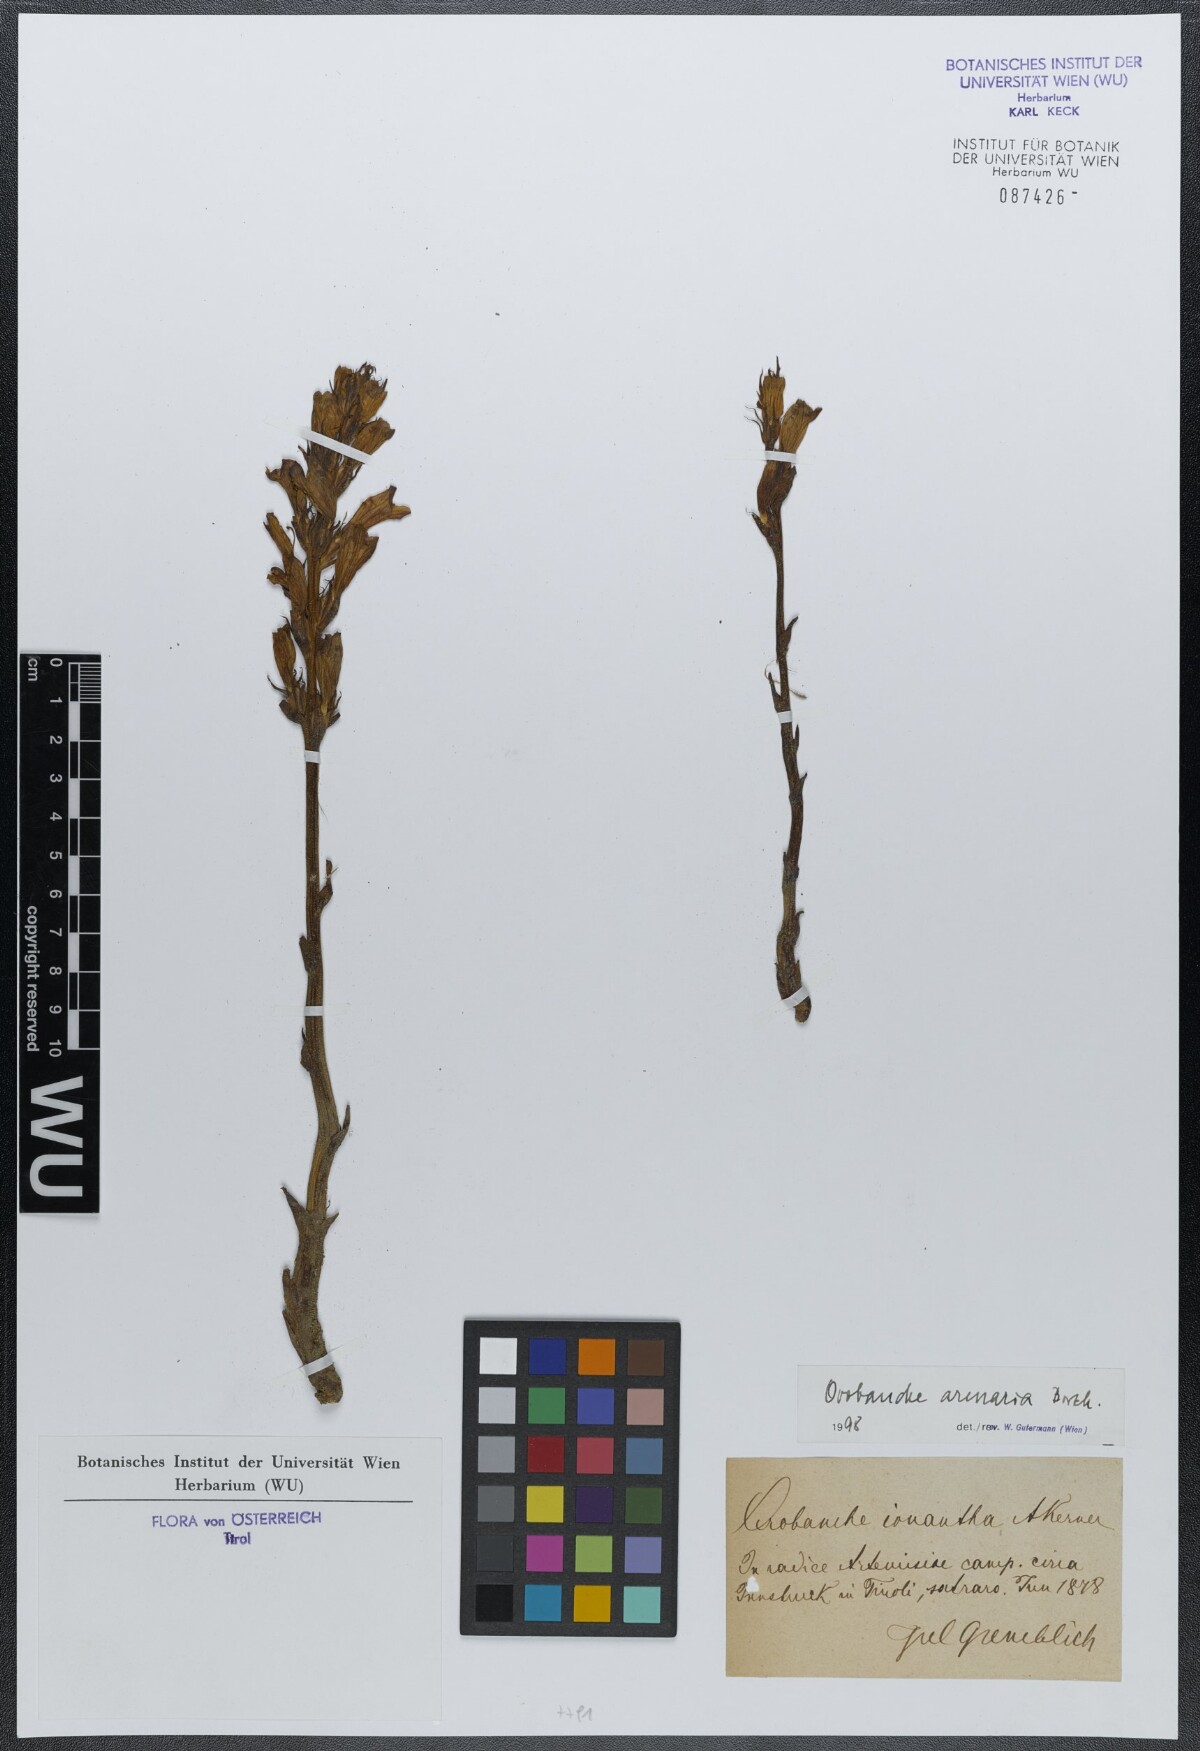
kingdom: Plantae
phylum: Tracheophyta
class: Magnoliopsida
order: Lamiales
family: Orobanchaceae
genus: Phelipanche
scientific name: Phelipanche arenaria
